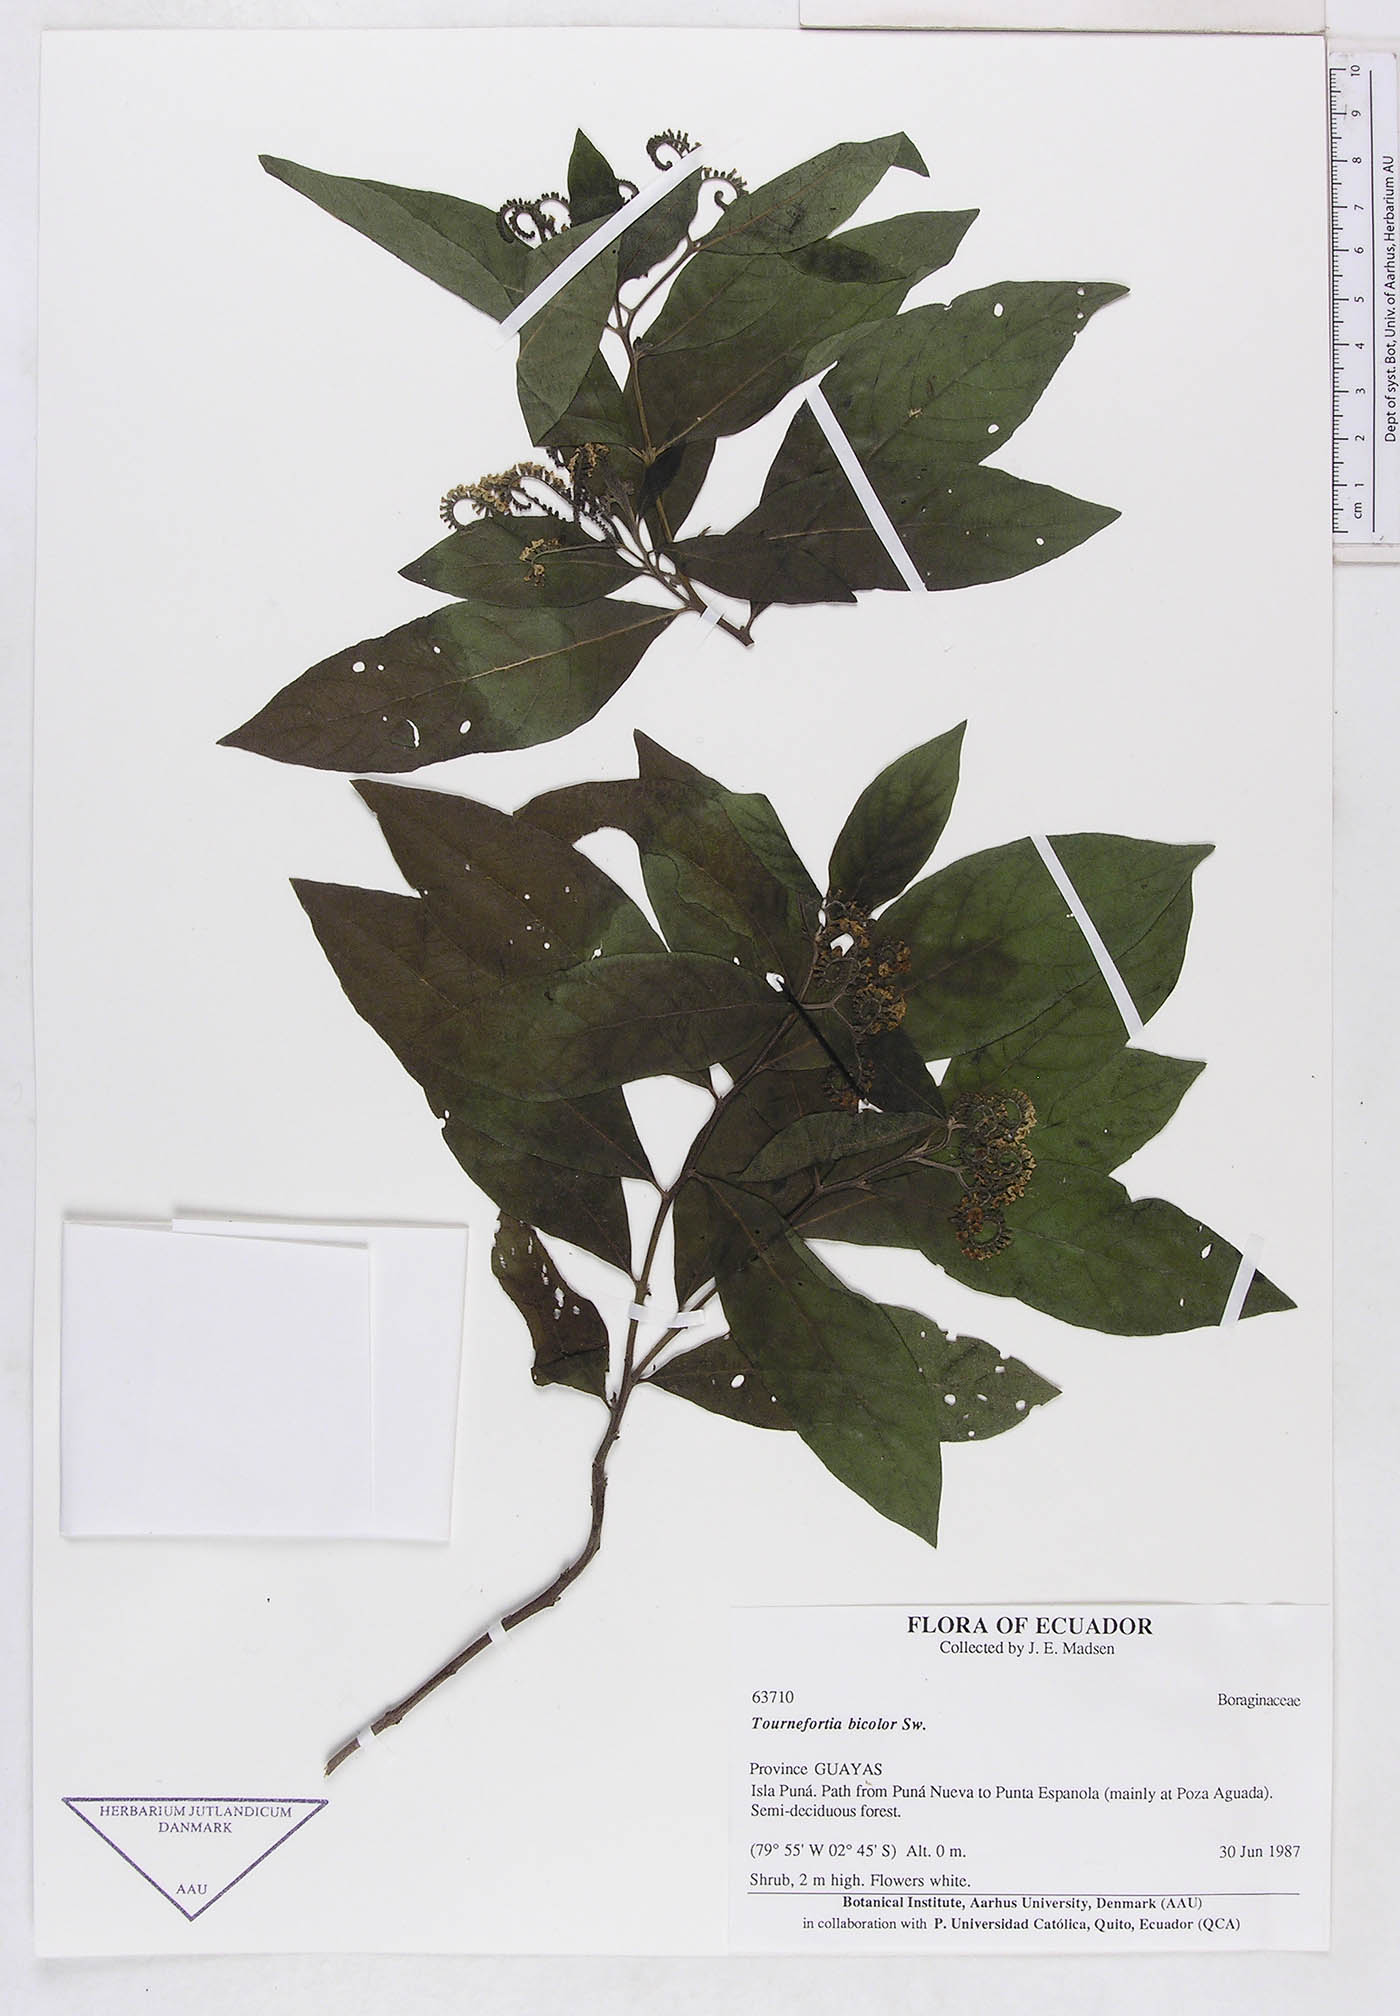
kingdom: Plantae
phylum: Tracheophyta
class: Magnoliopsida
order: Boraginales
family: Heliotropiaceae
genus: Tournefortia
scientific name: Tournefortia
